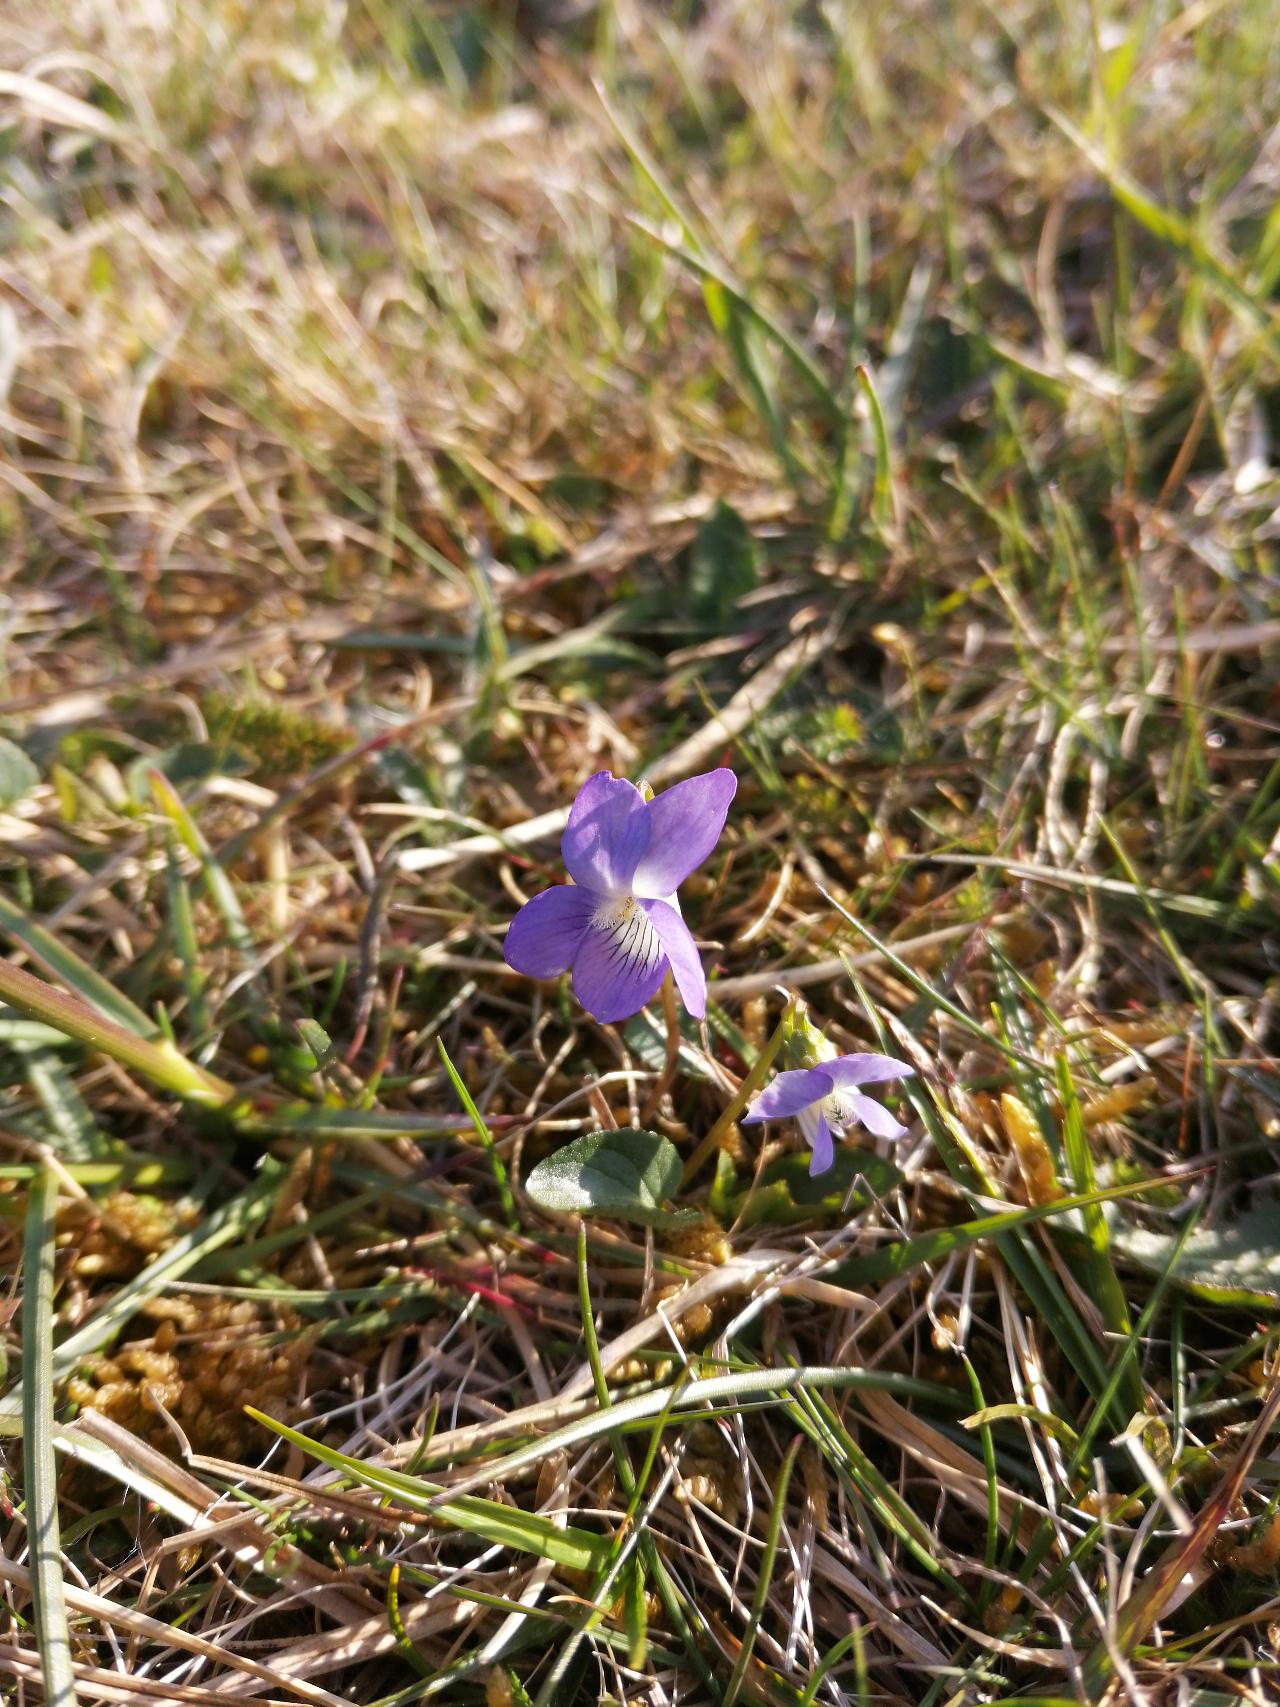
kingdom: Plantae
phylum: Tracheophyta
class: Magnoliopsida
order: Malpighiales
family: Violaceae
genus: Viola
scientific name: Viola canina
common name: Hunde-viol
